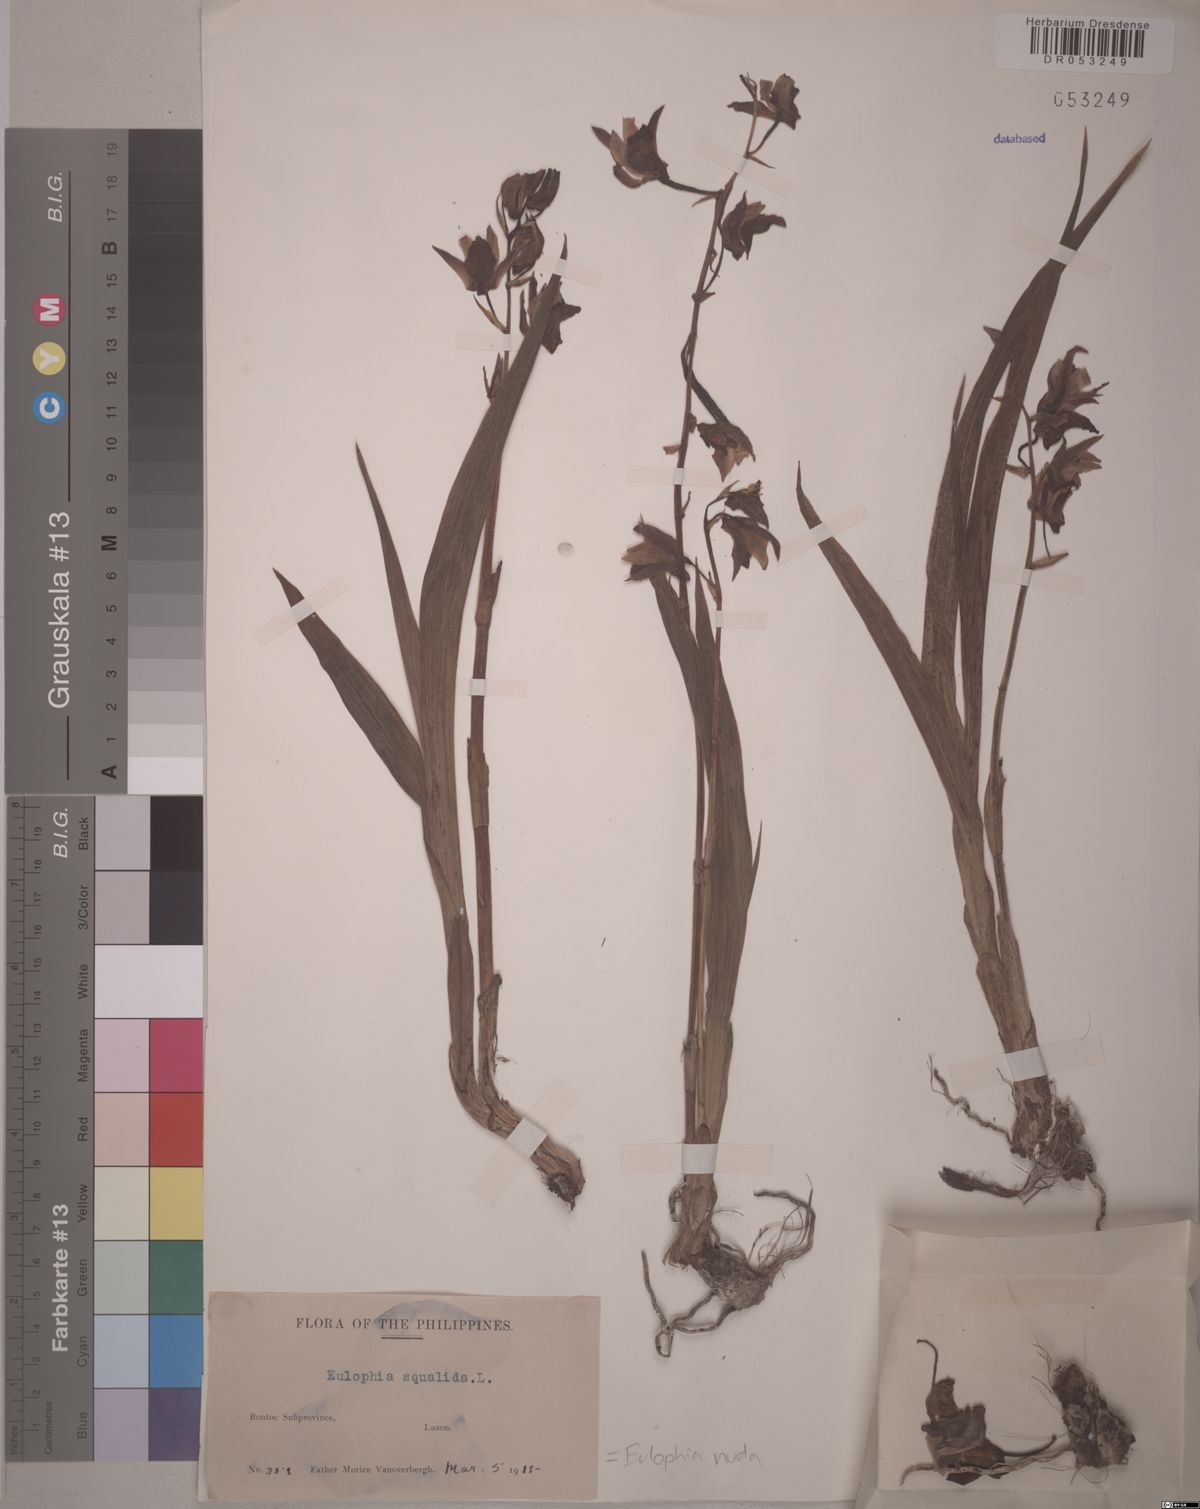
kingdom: Plantae
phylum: Tracheophyta
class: Liliopsida
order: Asparagales
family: Orchidaceae
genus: Eulophia
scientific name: Eulophia nuda
